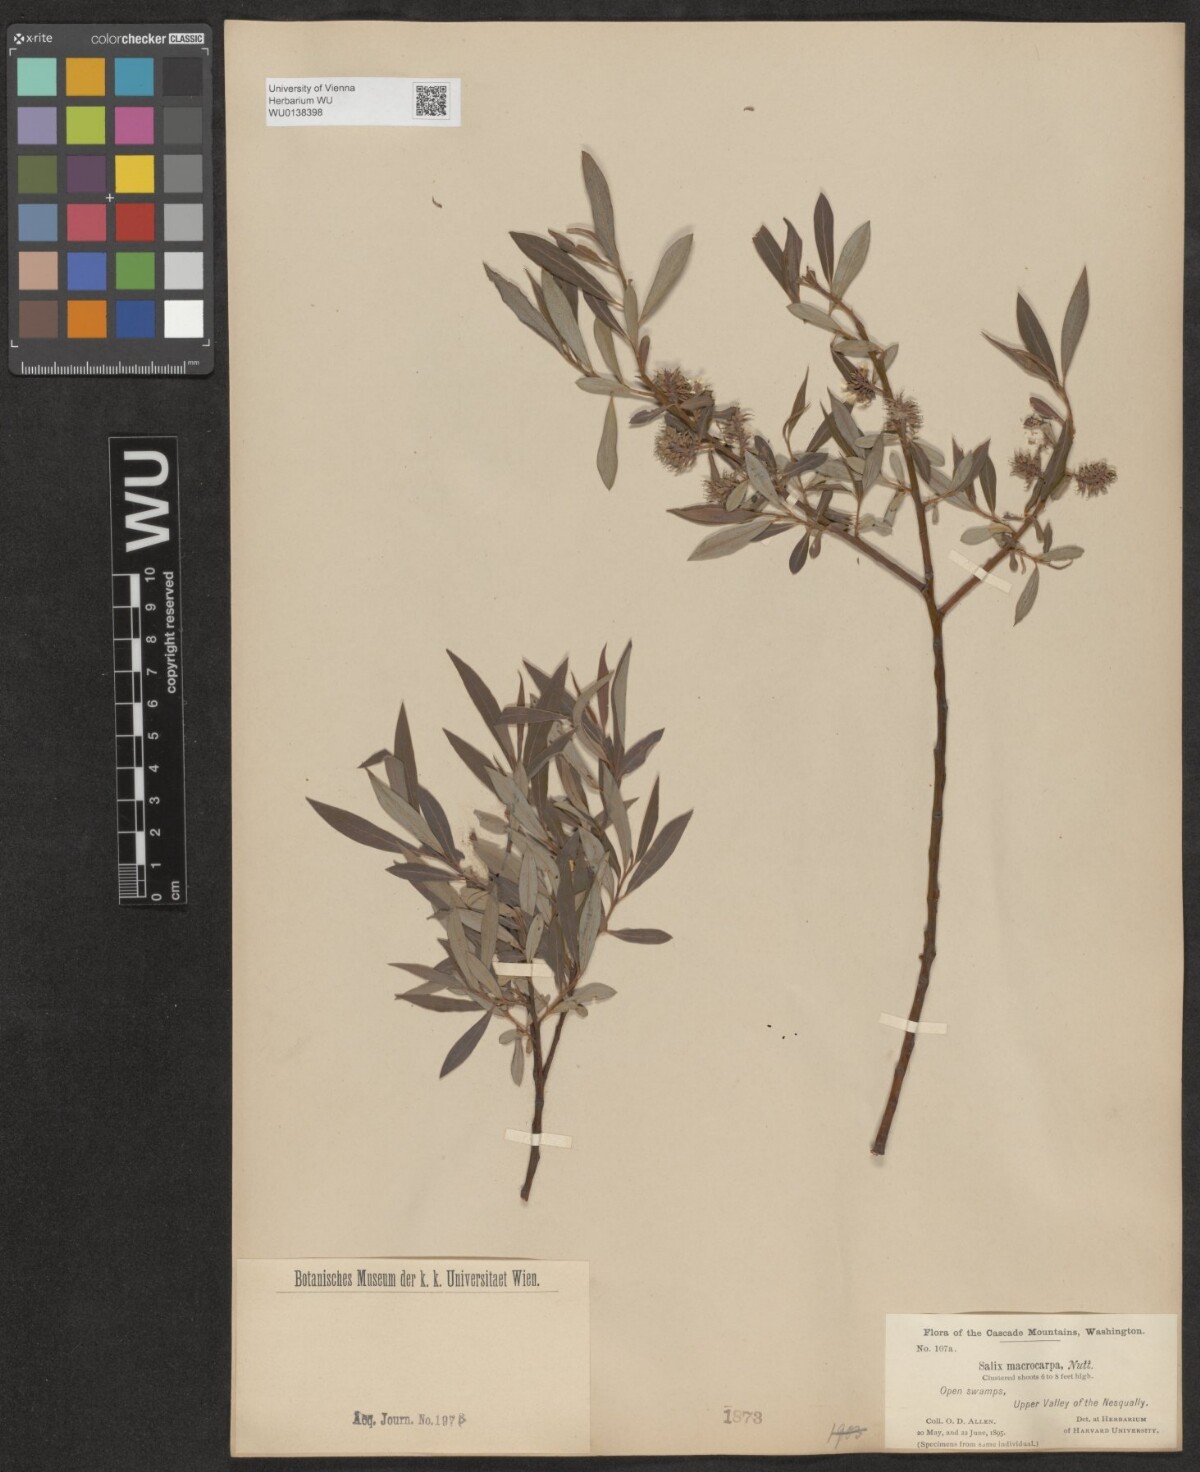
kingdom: Plantae
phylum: Tracheophyta
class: Magnoliopsida
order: Malpighiales
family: Salicaceae
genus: Salix
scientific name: Salix glauca
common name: Glaucous willow
